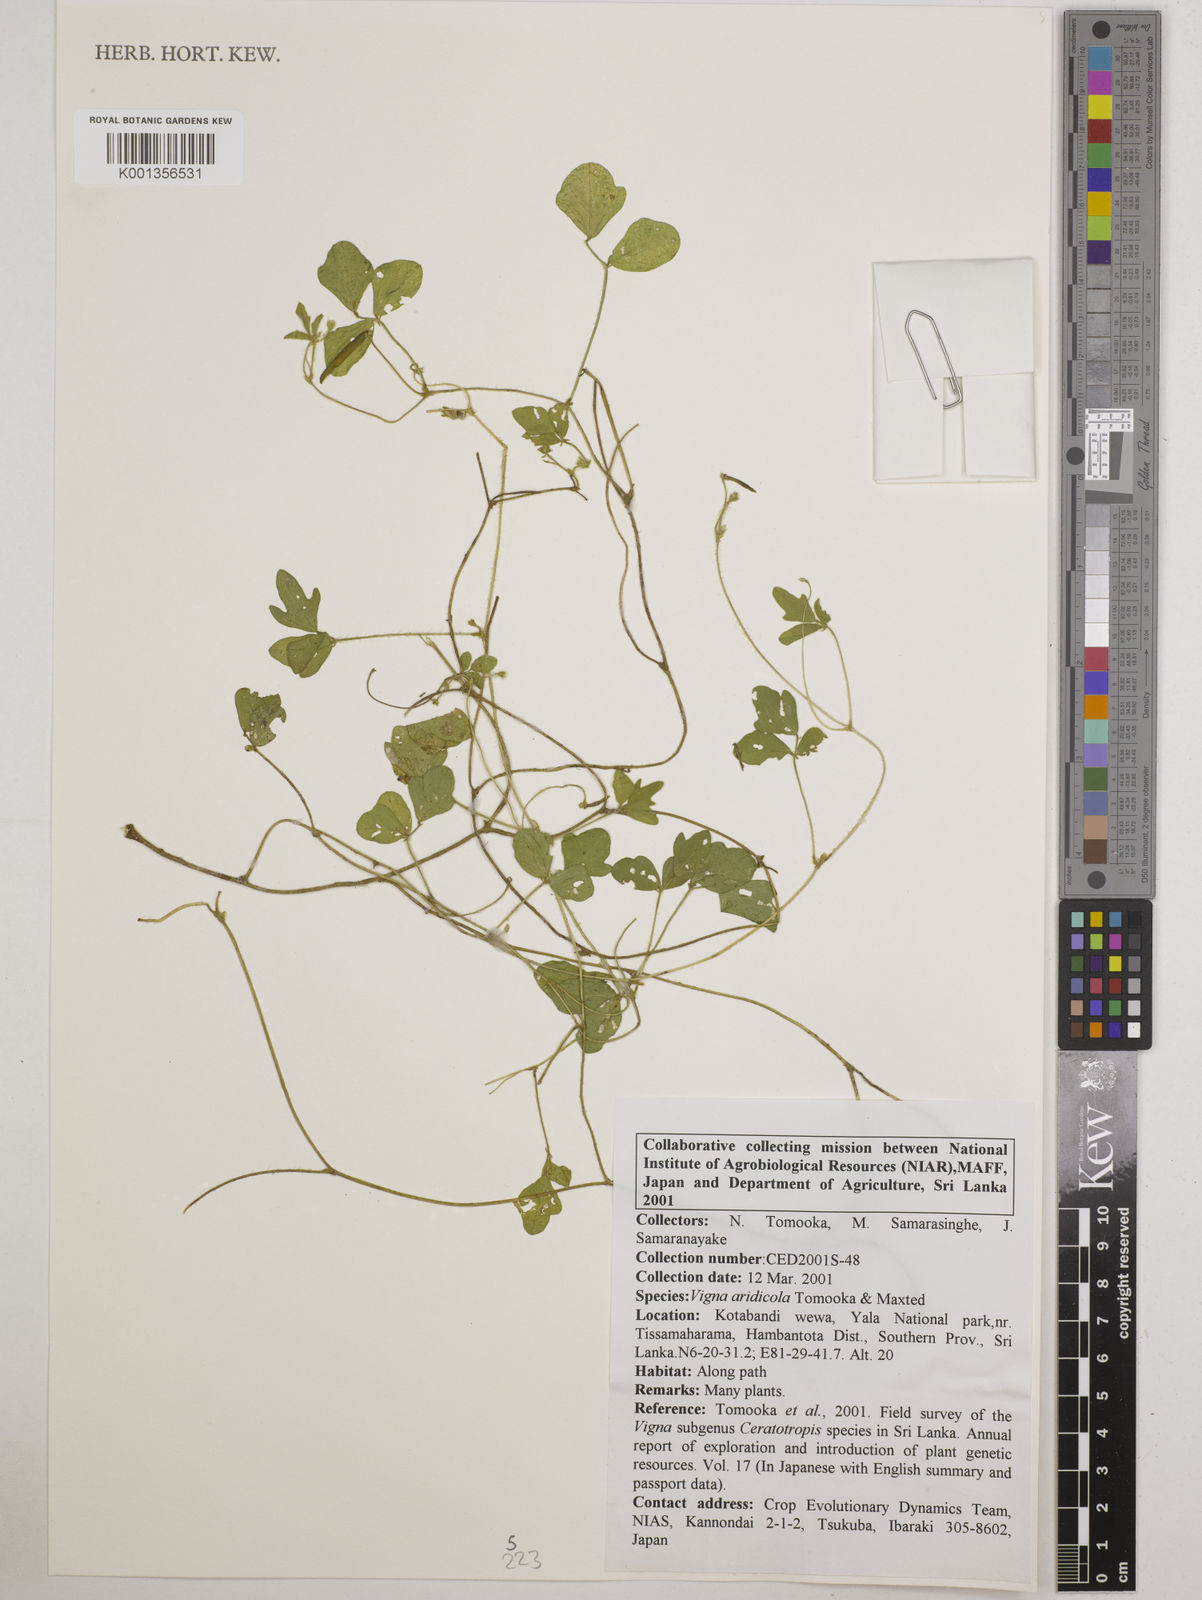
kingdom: Plantae
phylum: Tracheophyta
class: Magnoliopsida
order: Fabales
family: Fabaceae
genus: Vigna
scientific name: Vigna
